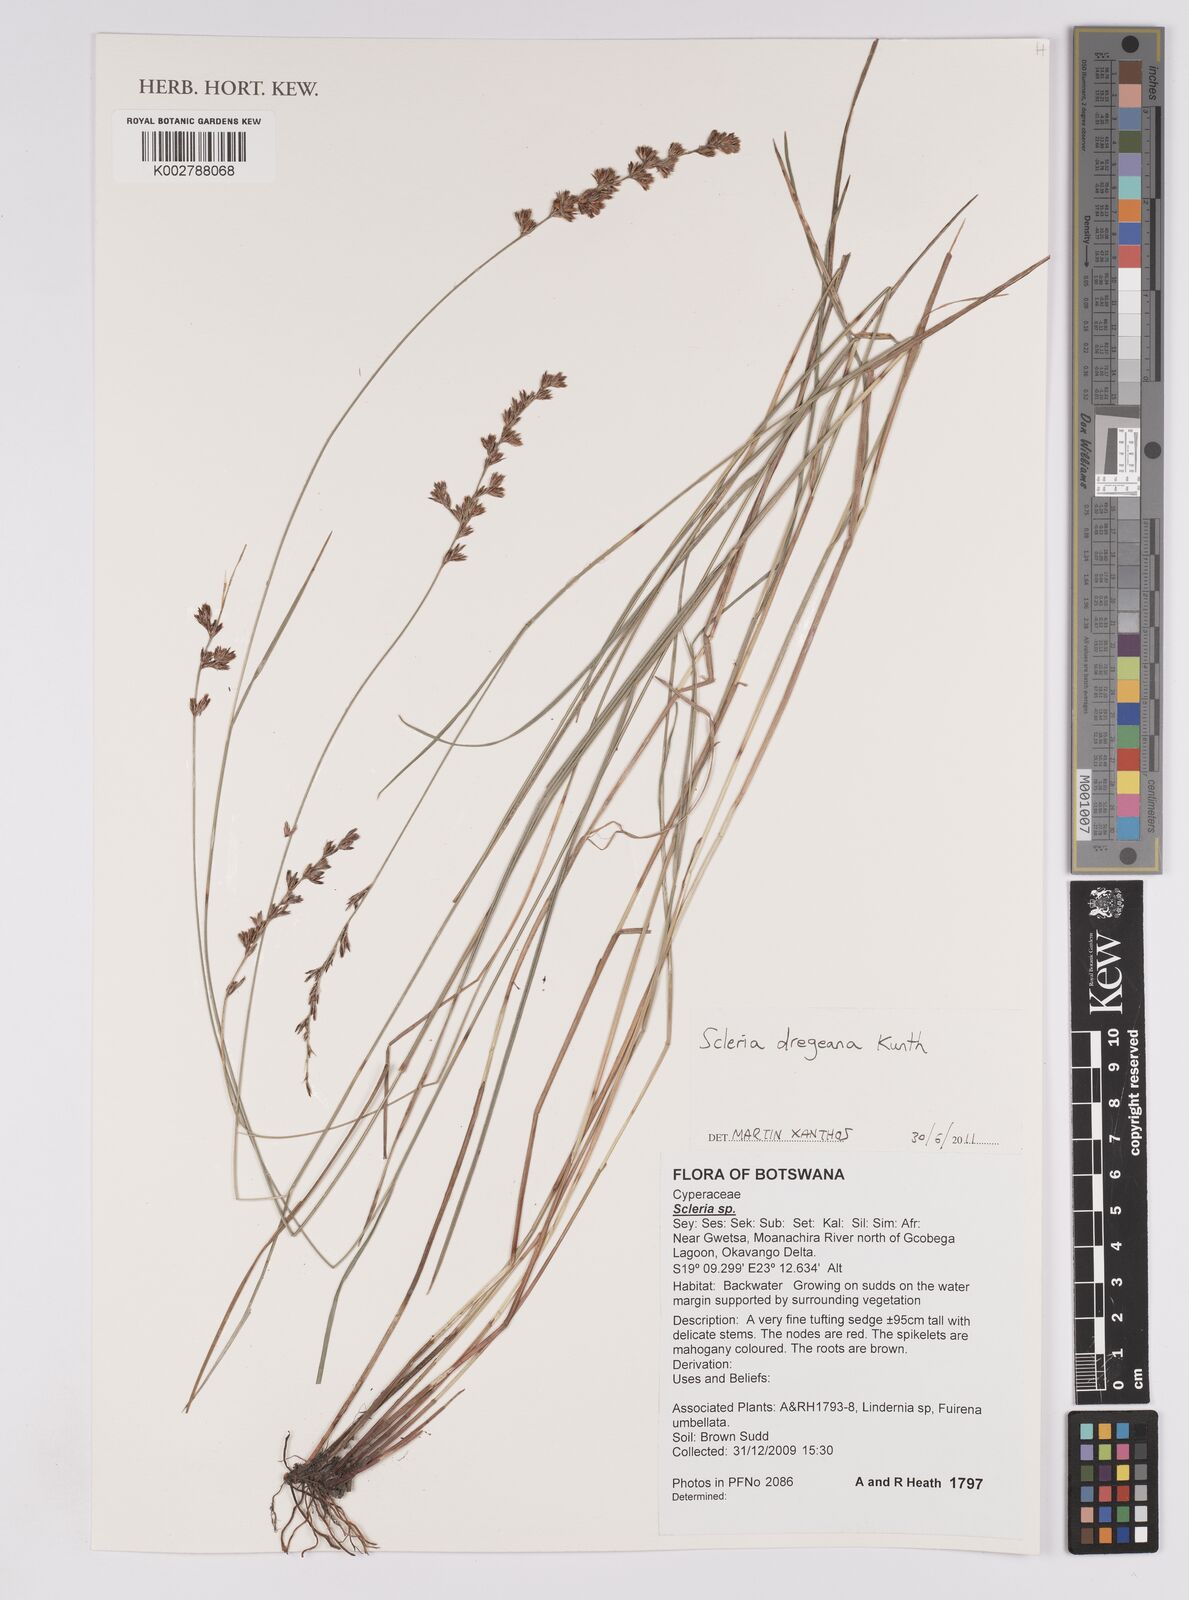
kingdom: Plantae
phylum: Tracheophyta
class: Liliopsida
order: Poales
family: Cyperaceae
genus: Scleria
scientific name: Scleria dregeana
